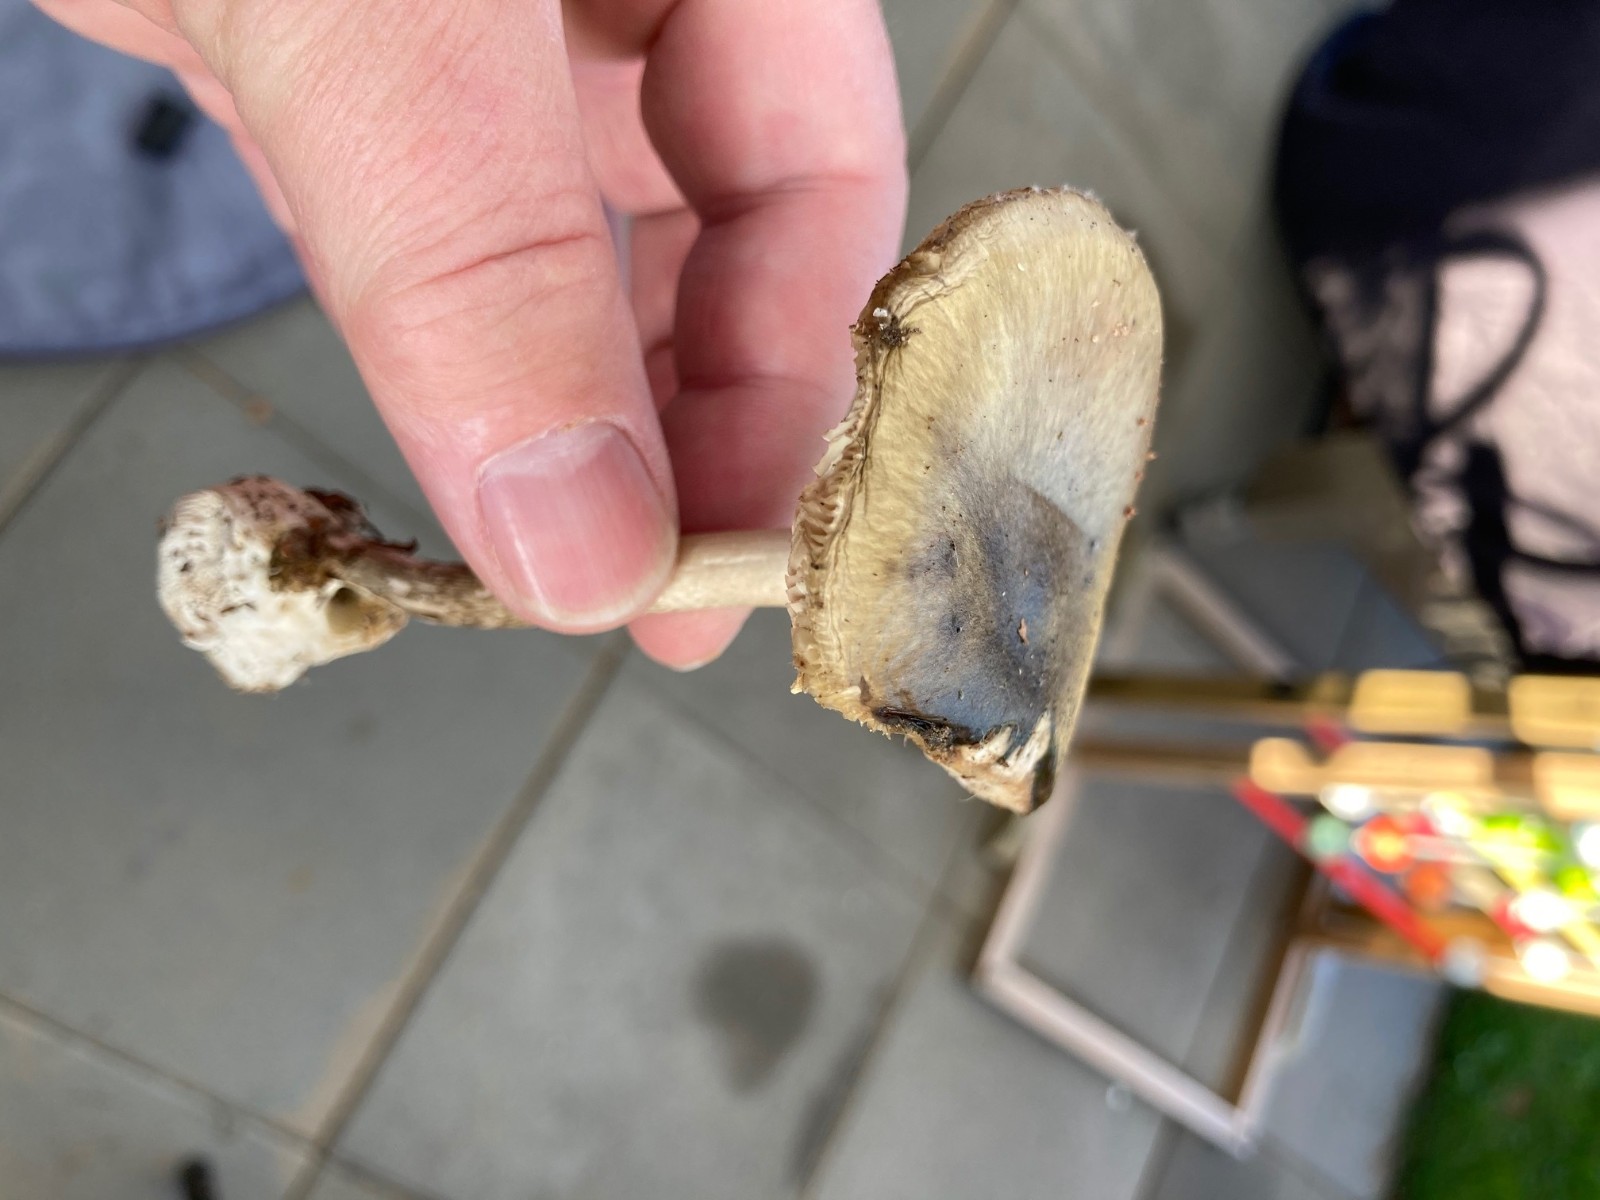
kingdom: Fungi
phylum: Basidiomycota
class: Agaricomycetes
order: Agaricales
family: Amanitaceae
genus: Amanita
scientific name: Amanita phalloides
